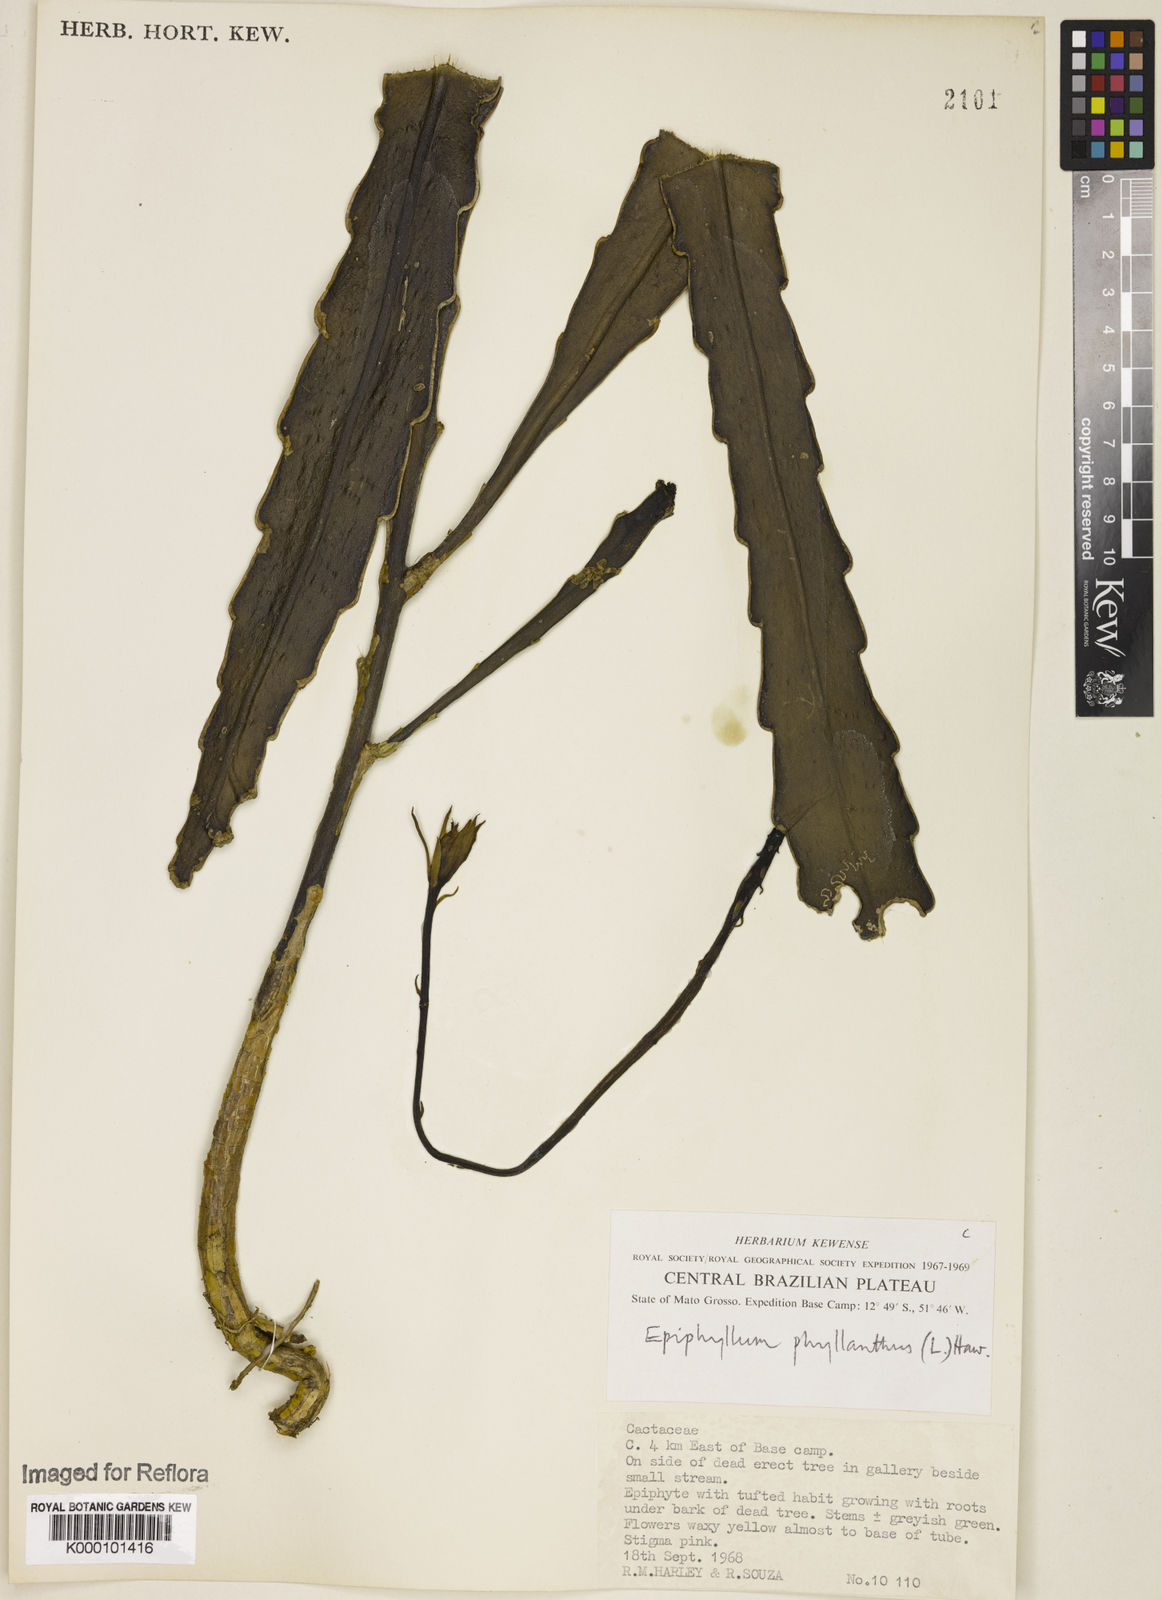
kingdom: Plantae
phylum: Tracheophyta
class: Magnoliopsida
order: Caryophyllales
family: Cactaceae
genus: Epiphyllum
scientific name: Epiphyllum phyllanthus
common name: Climbing cactus
